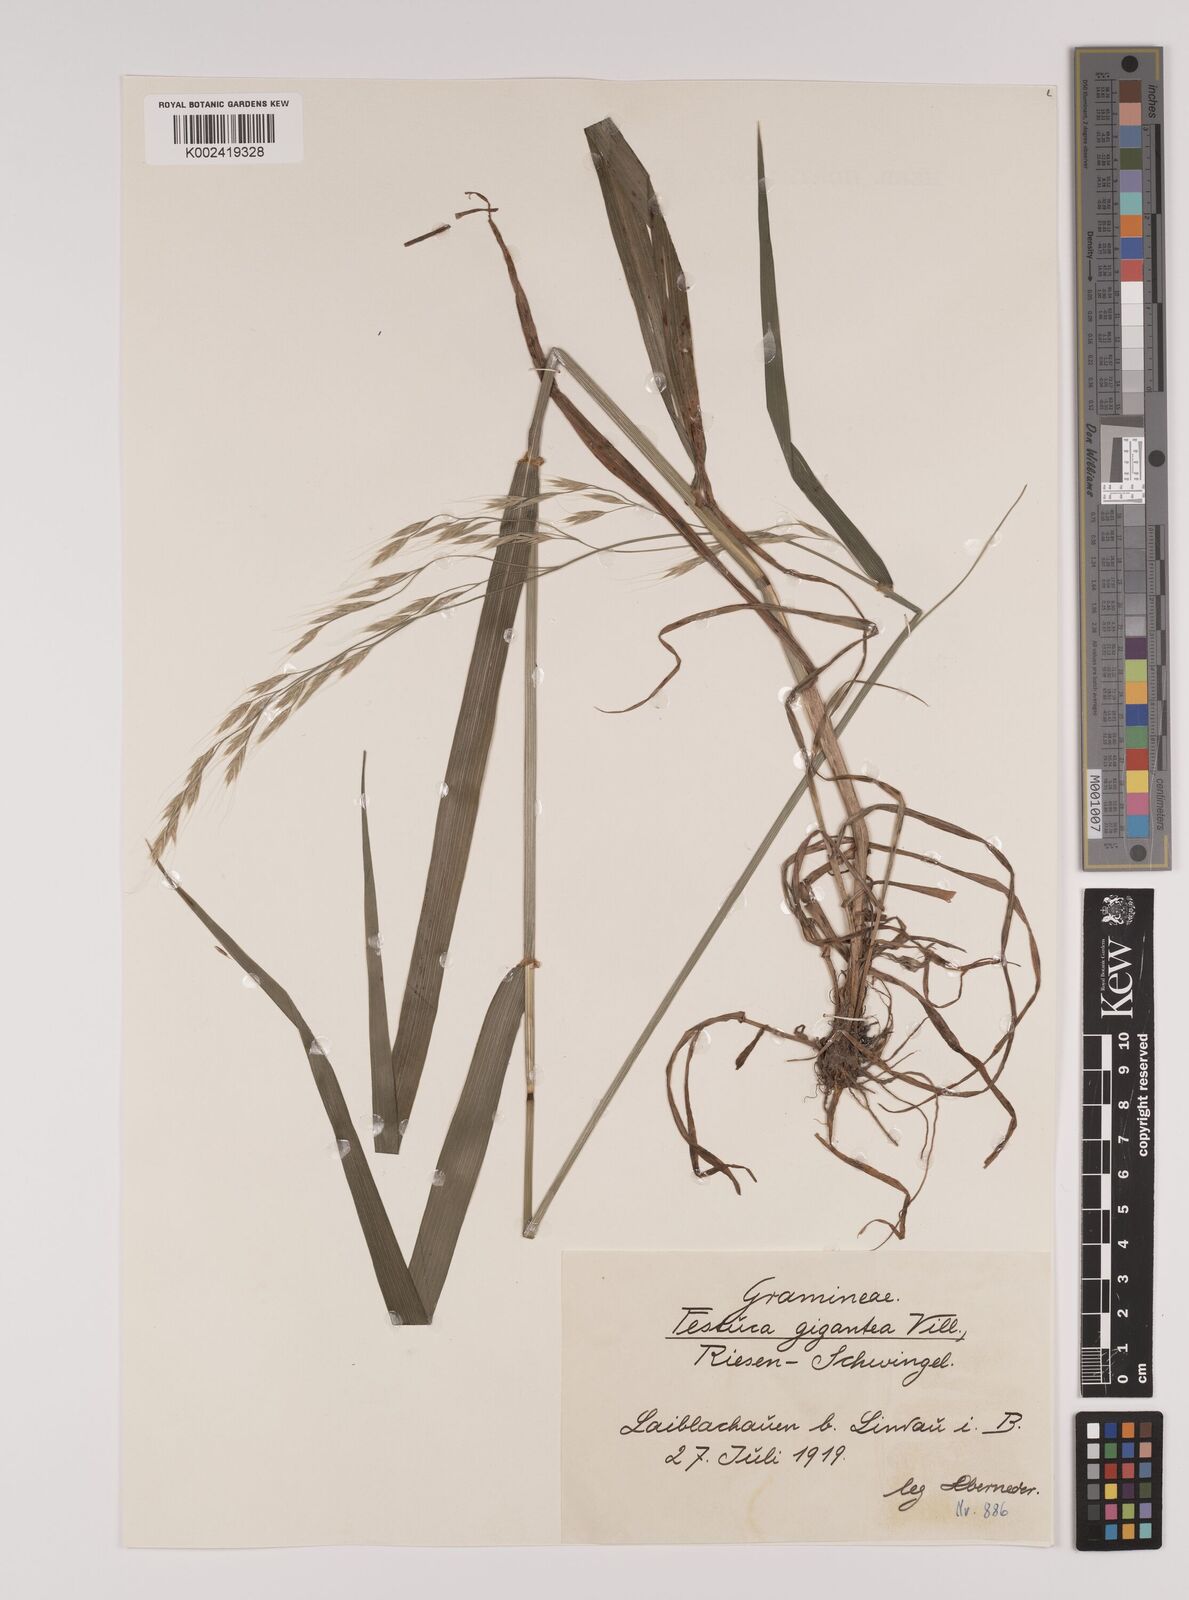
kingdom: Plantae
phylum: Tracheophyta
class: Liliopsida
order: Poales
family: Poaceae
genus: Lolium
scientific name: Lolium giganteum
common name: Giant fescue
